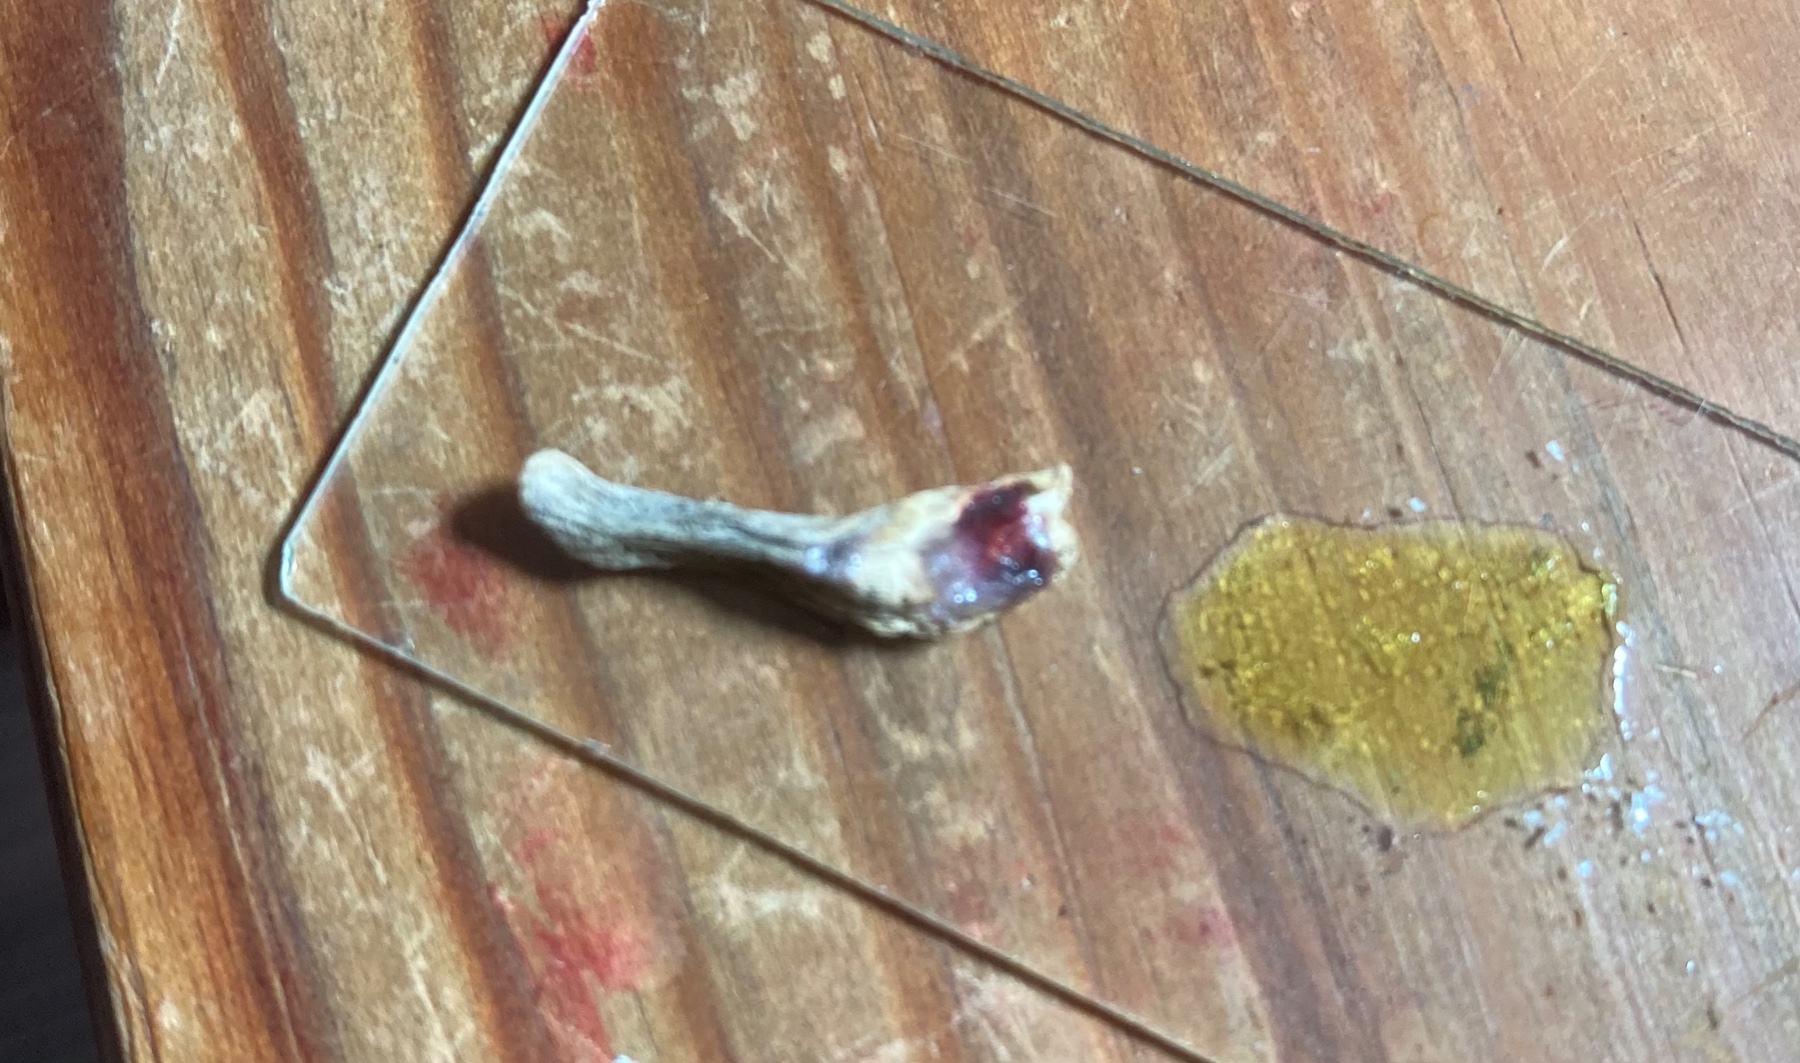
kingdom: Fungi
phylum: Basidiomycota
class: Agaricomycetes
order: Russulales
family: Russulaceae
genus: Russula
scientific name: Russula puellula
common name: gulnende skørhat
